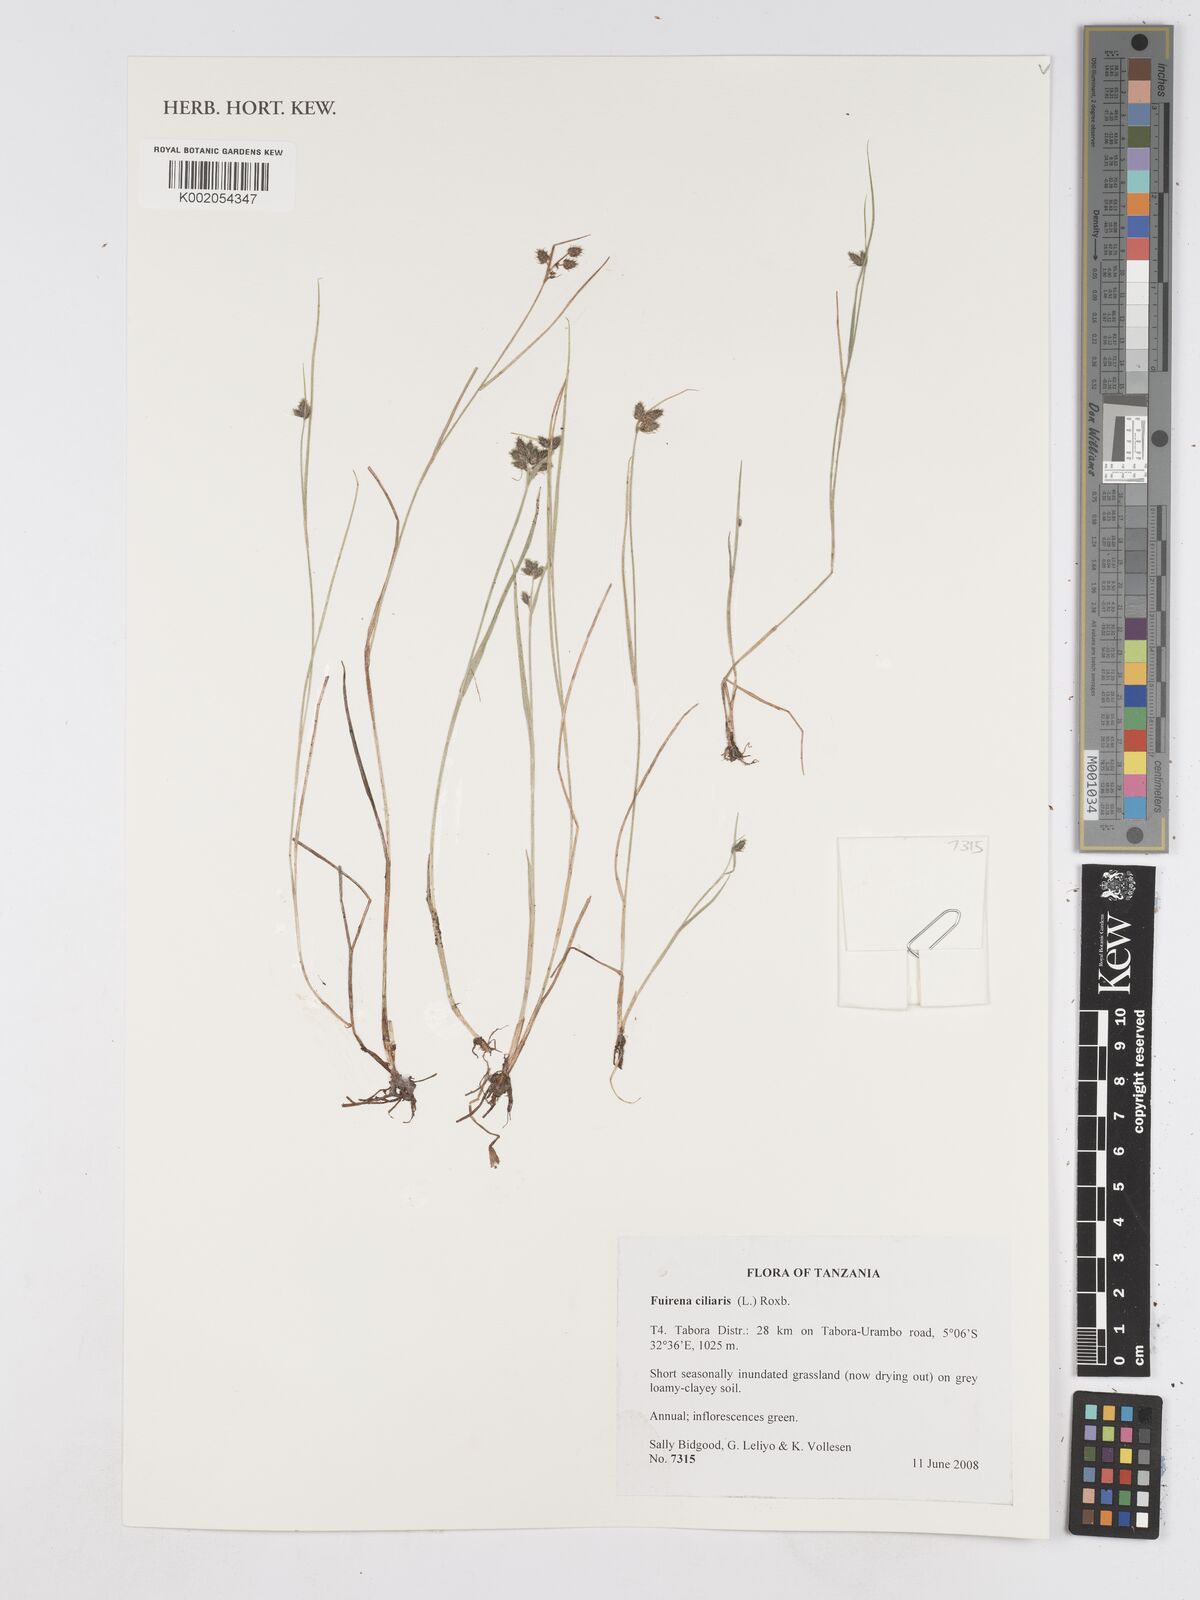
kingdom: Plantae
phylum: Tracheophyta
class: Liliopsida
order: Poales
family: Cyperaceae
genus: Fuirena
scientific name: Fuirena ciliaris
